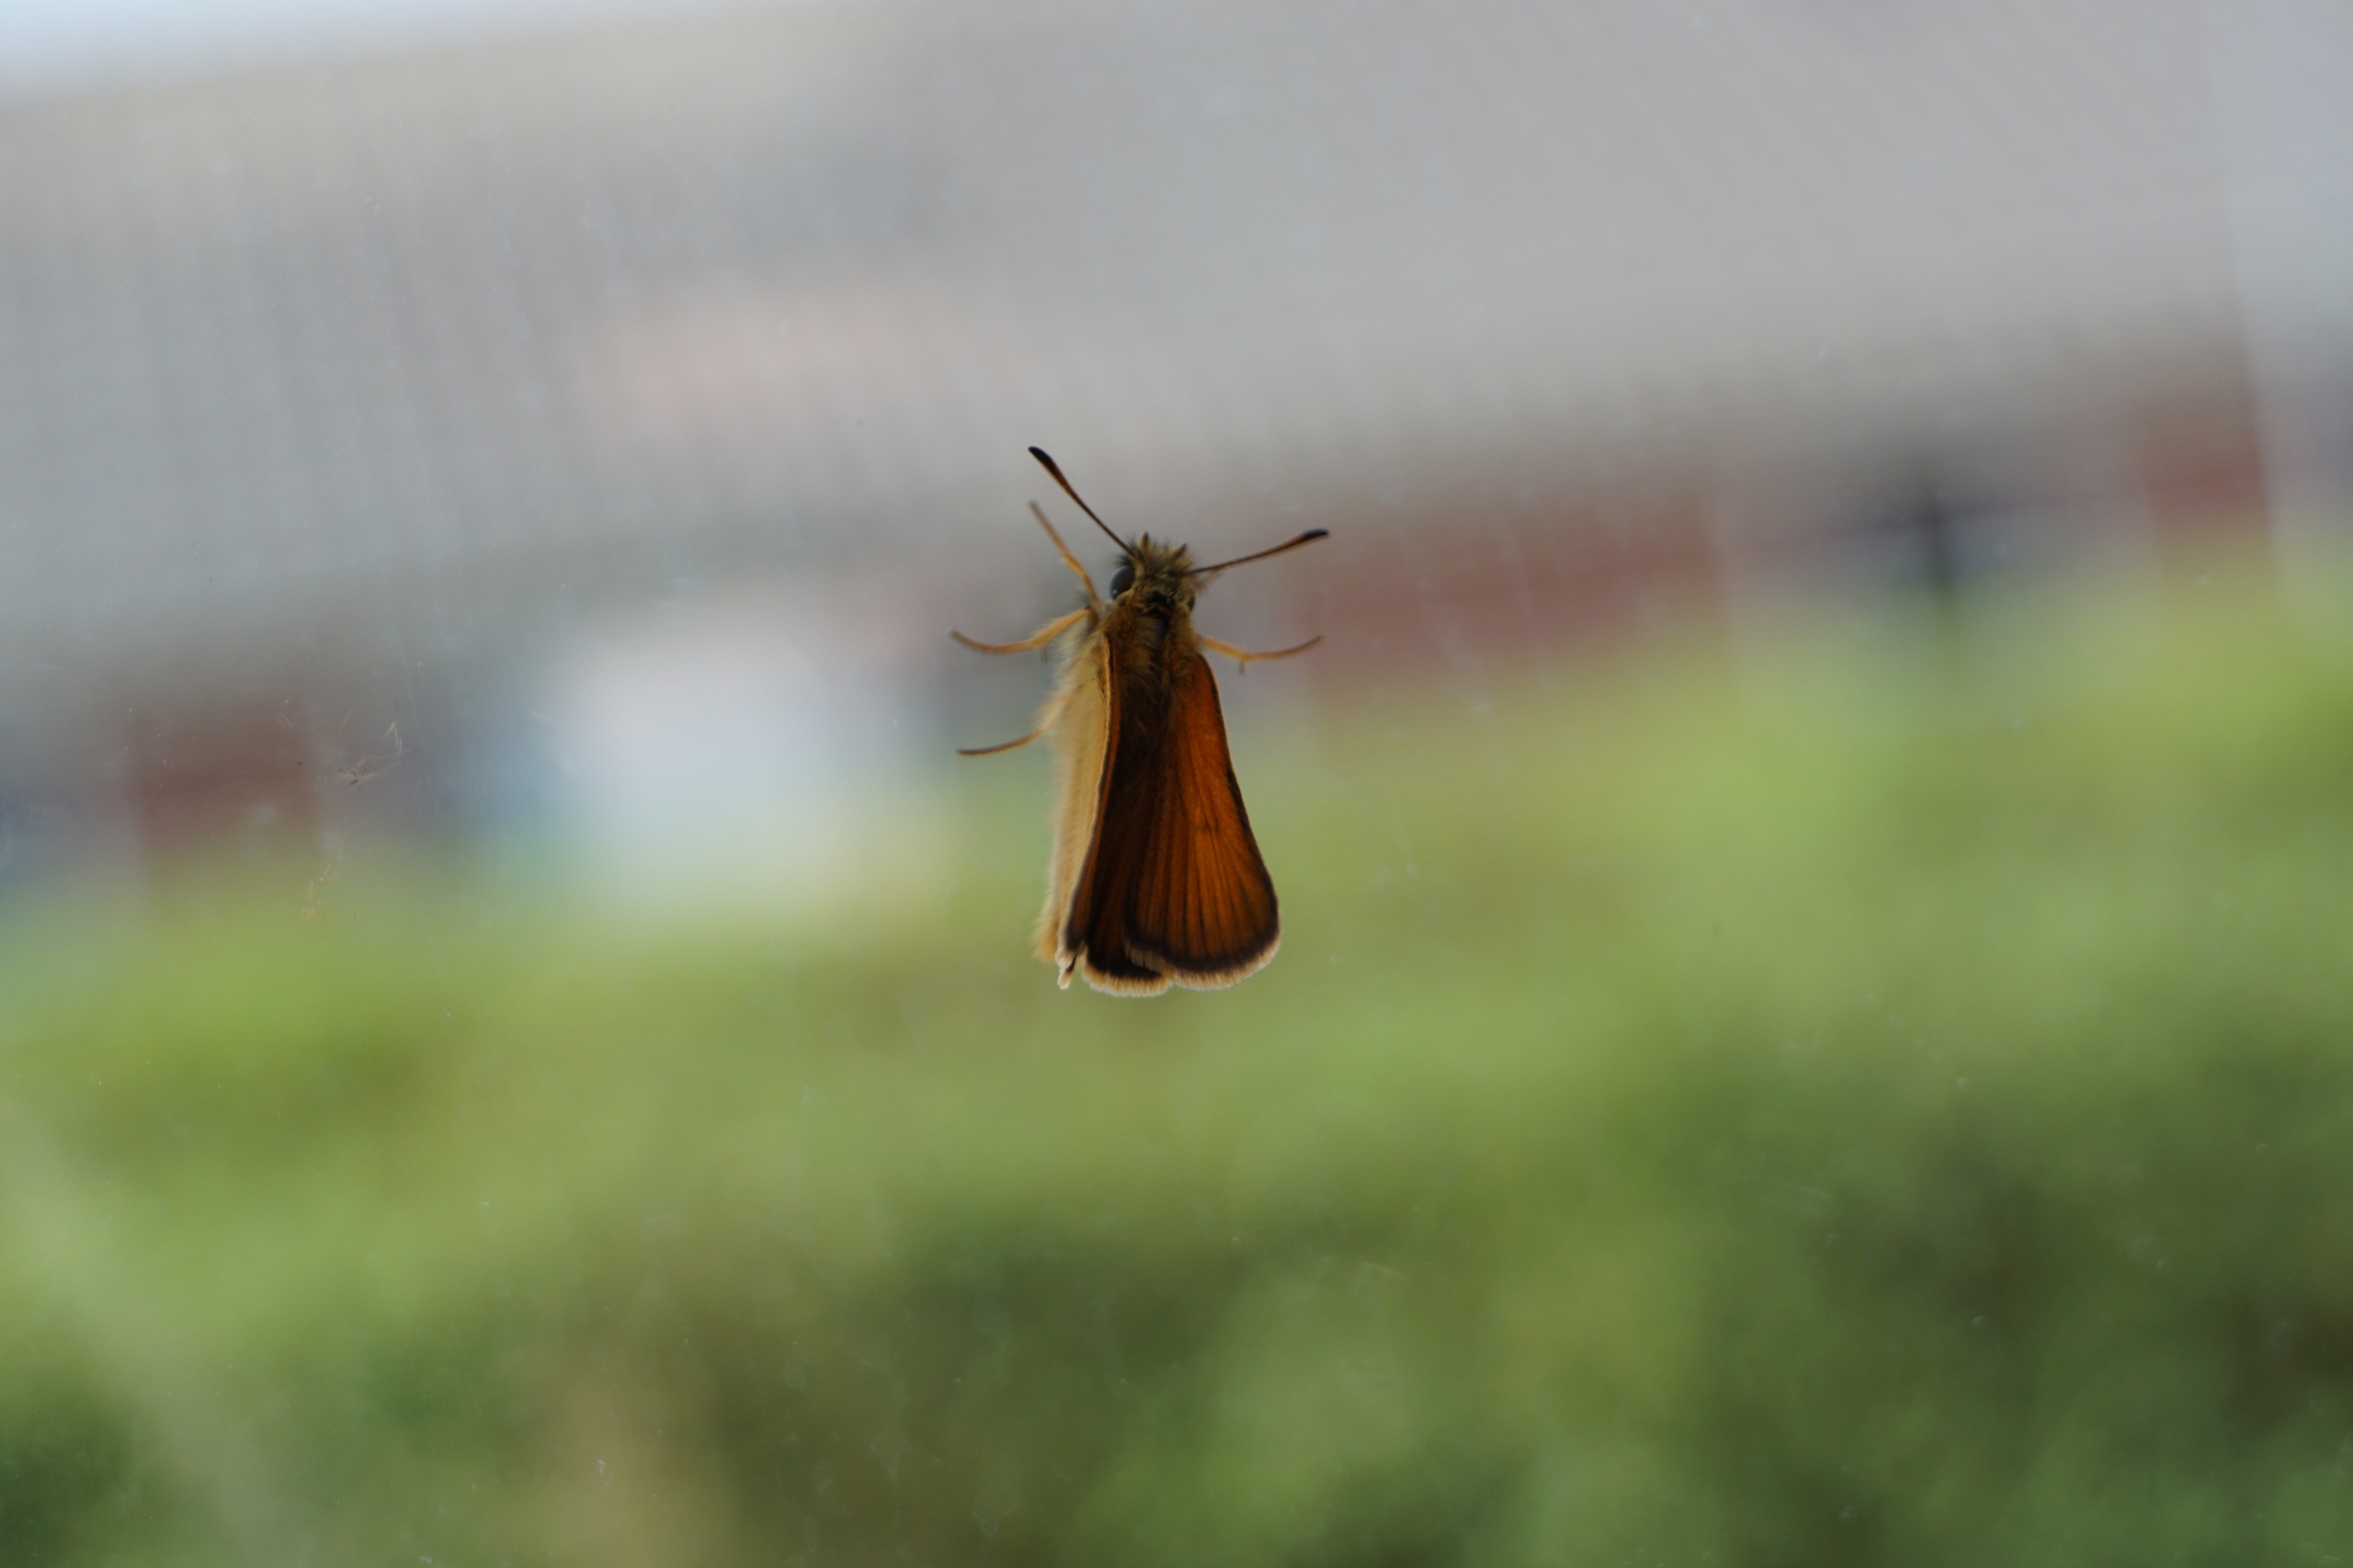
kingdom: Animalia
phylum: Arthropoda
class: Insecta
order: Lepidoptera
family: Hesperiidae
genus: Thymelicus
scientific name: Thymelicus lineola
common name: Stregbredpande
